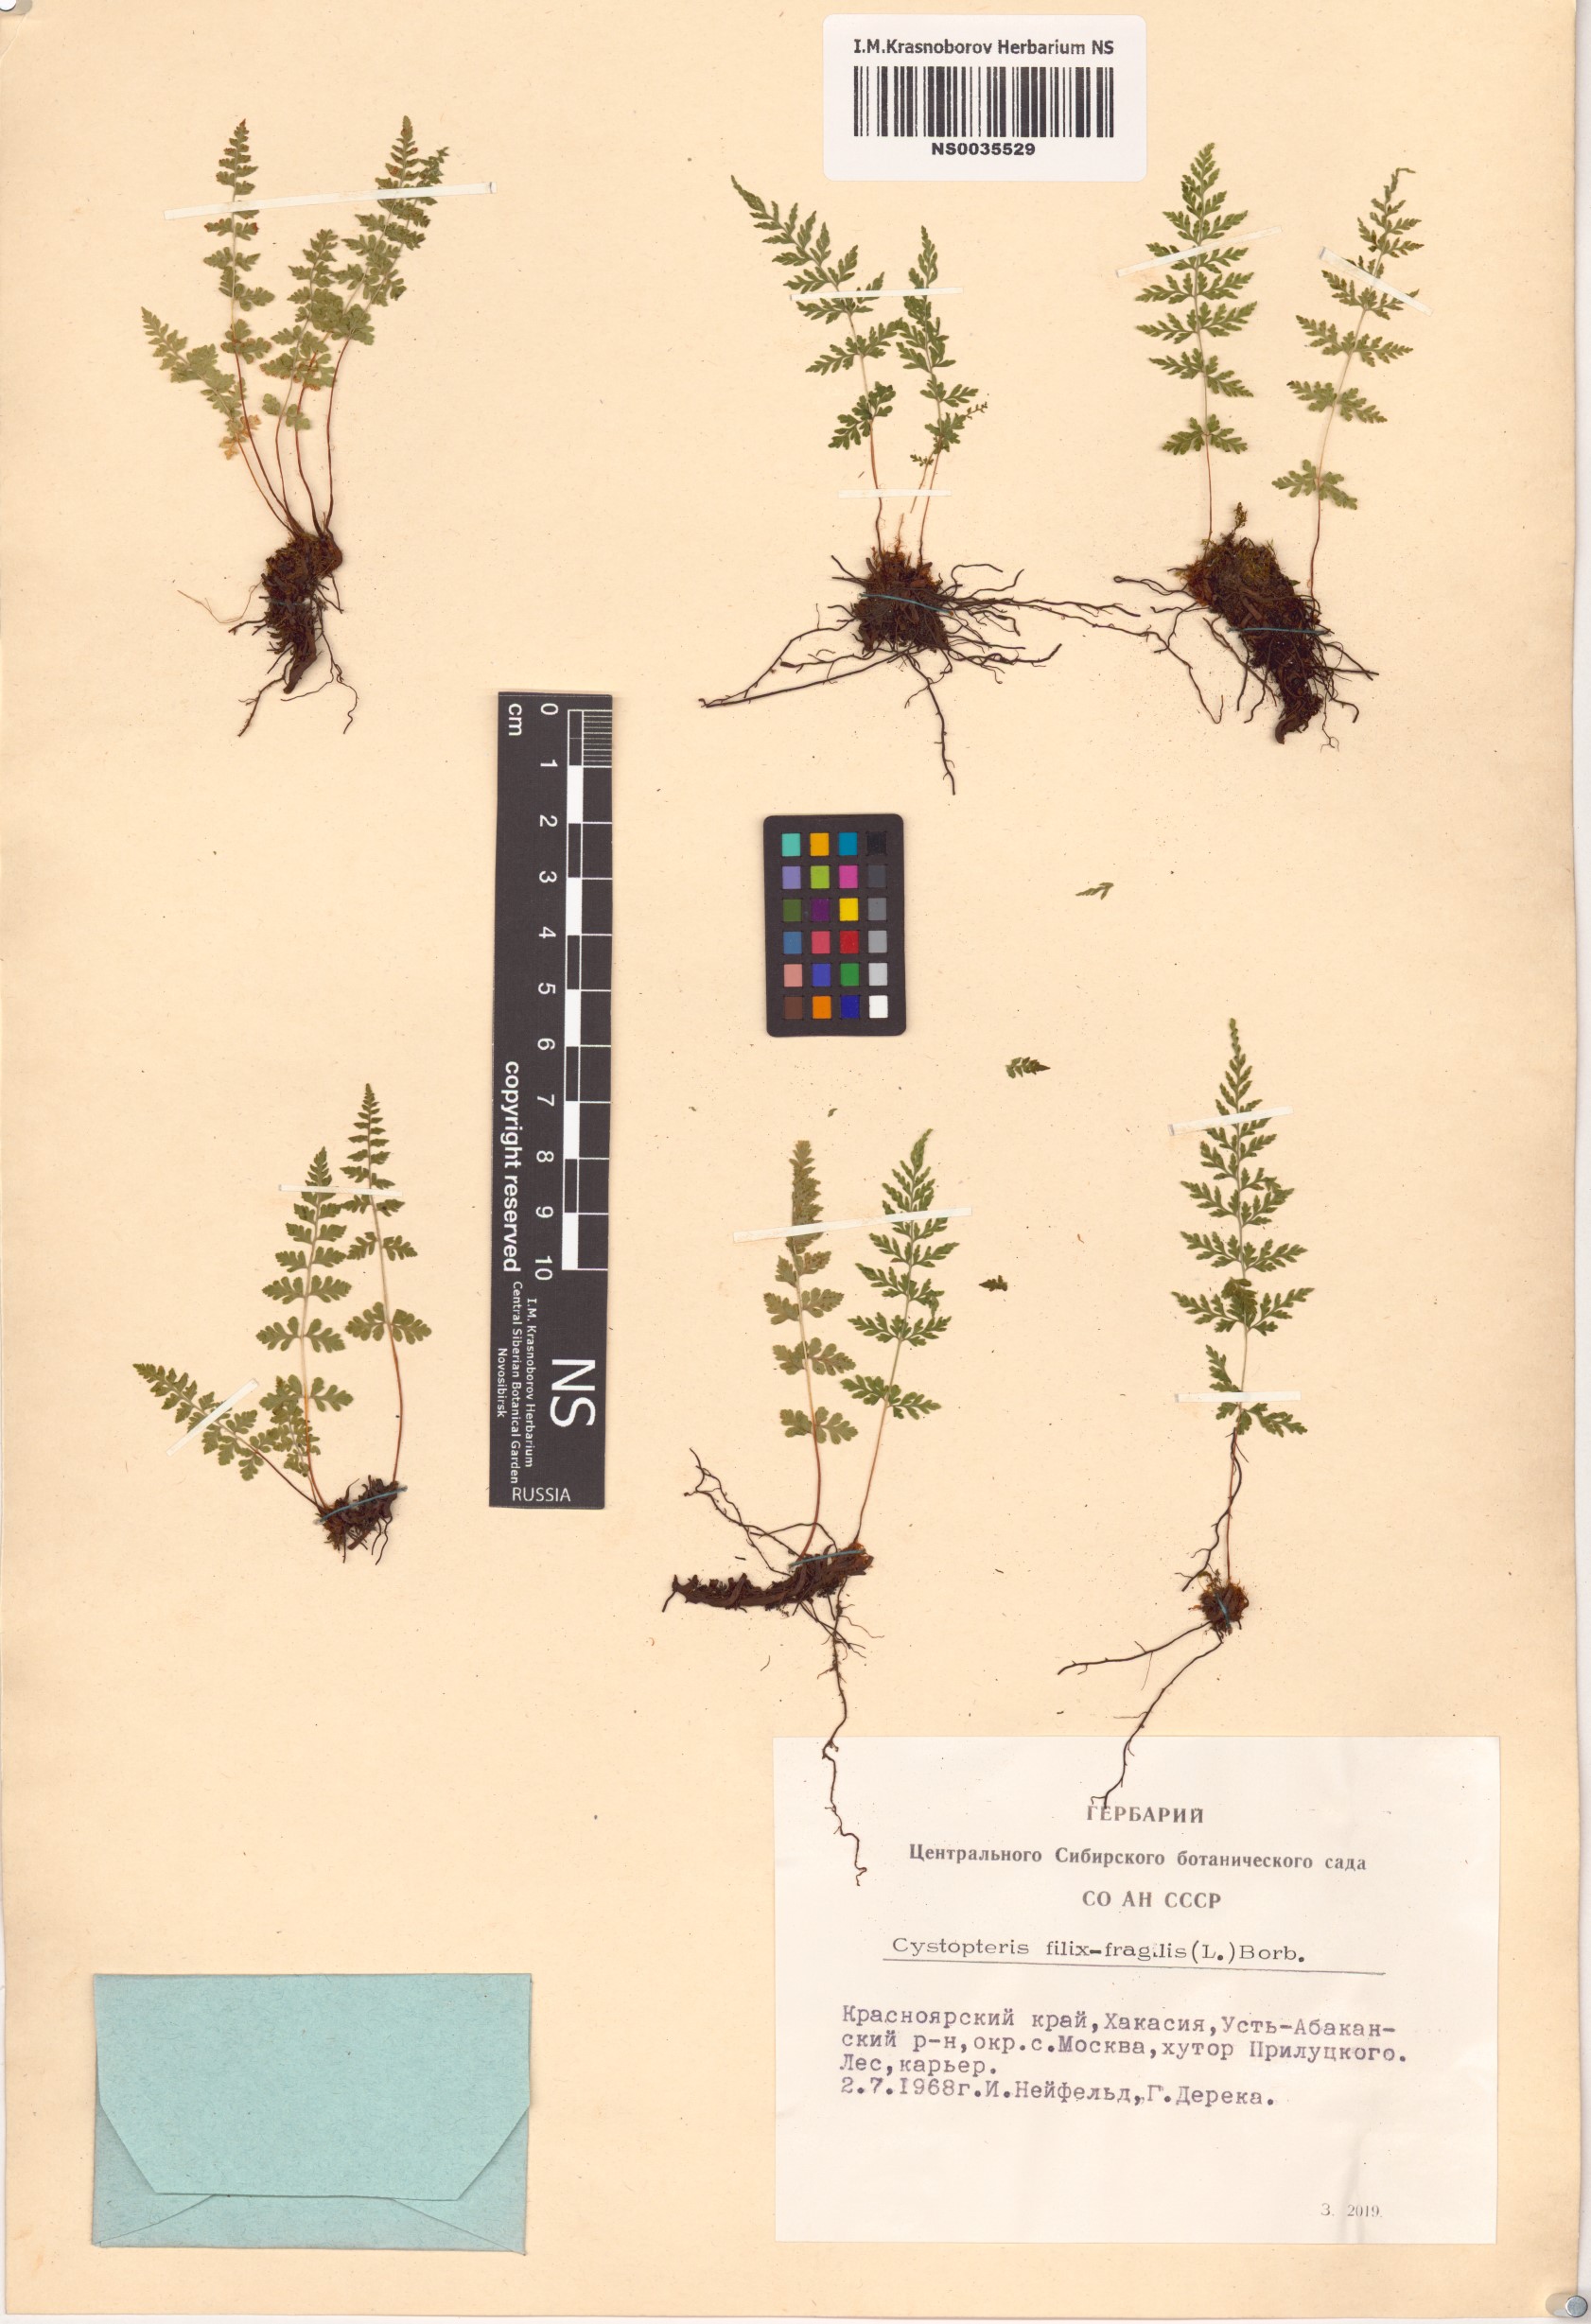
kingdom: Plantae
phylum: Tracheophyta
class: Polypodiopsida
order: Polypodiales
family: Cystopteridaceae
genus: Cystopteris
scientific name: Cystopteris fragilis
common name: Brittle bladder fern
